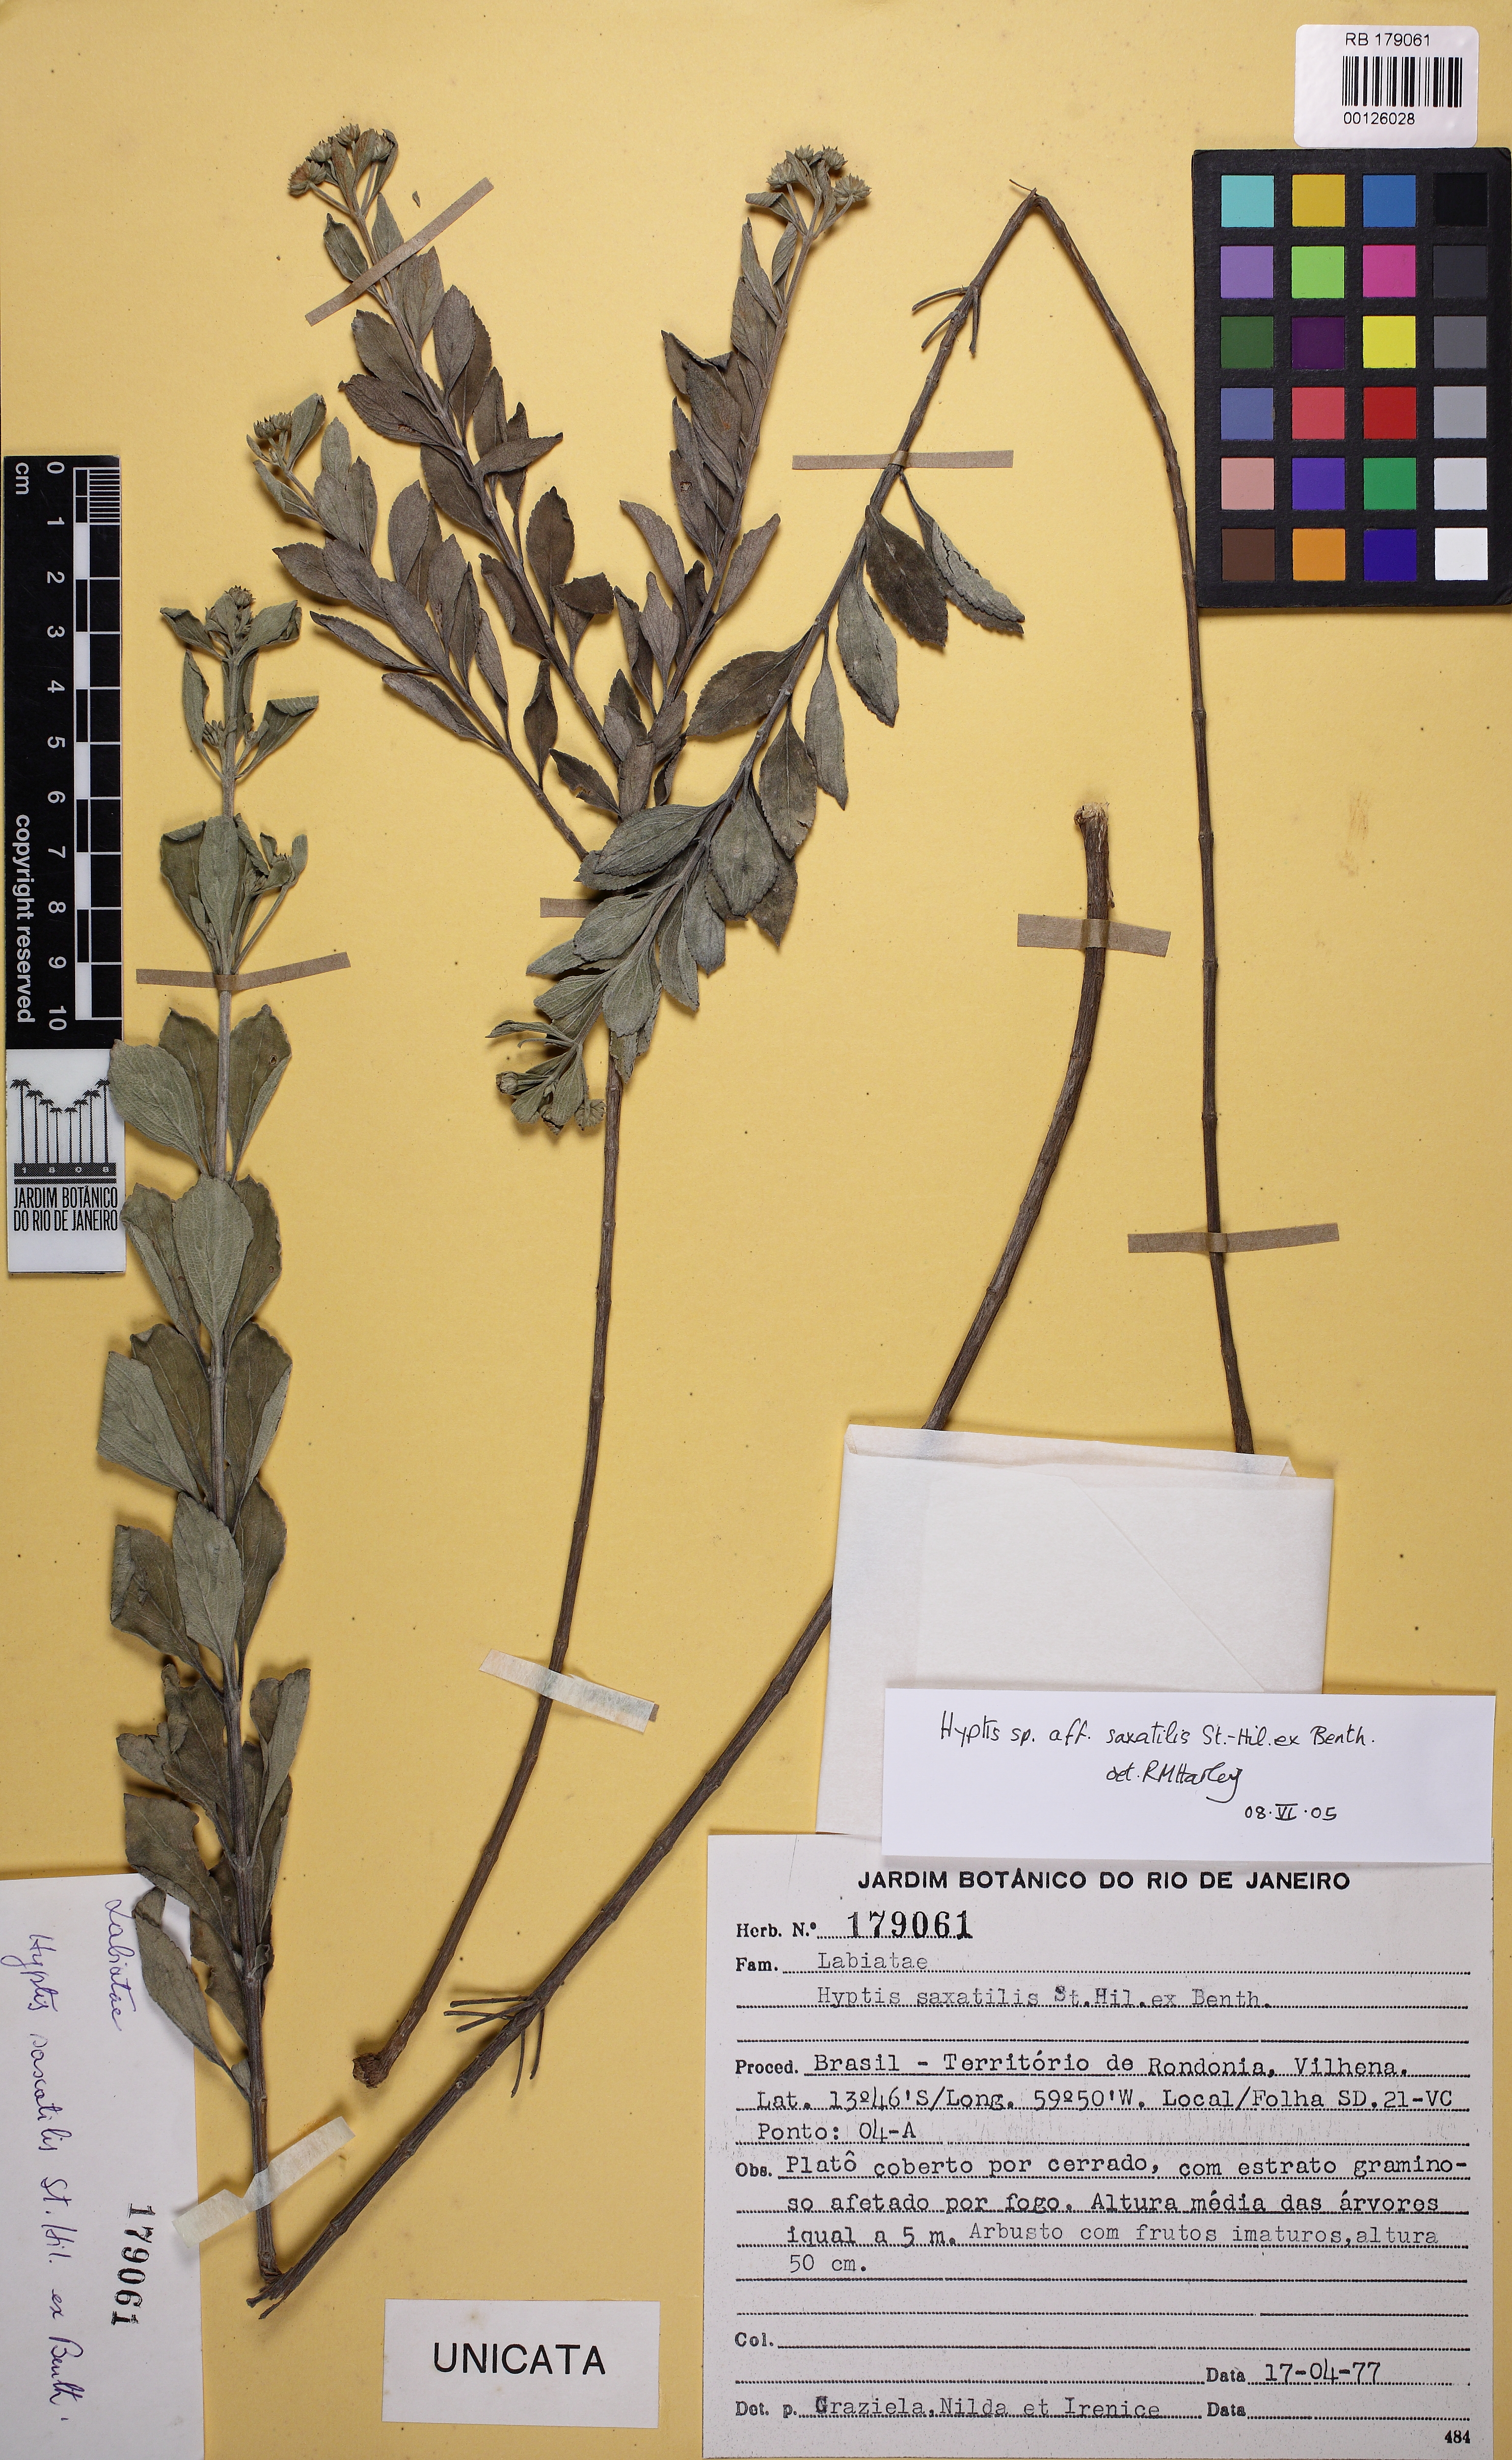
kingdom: Plantae
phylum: Tracheophyta
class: Magnoliopsida
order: Lamiales
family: Lamiaceae
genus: Hyptis
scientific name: Hyptis saxatilis
